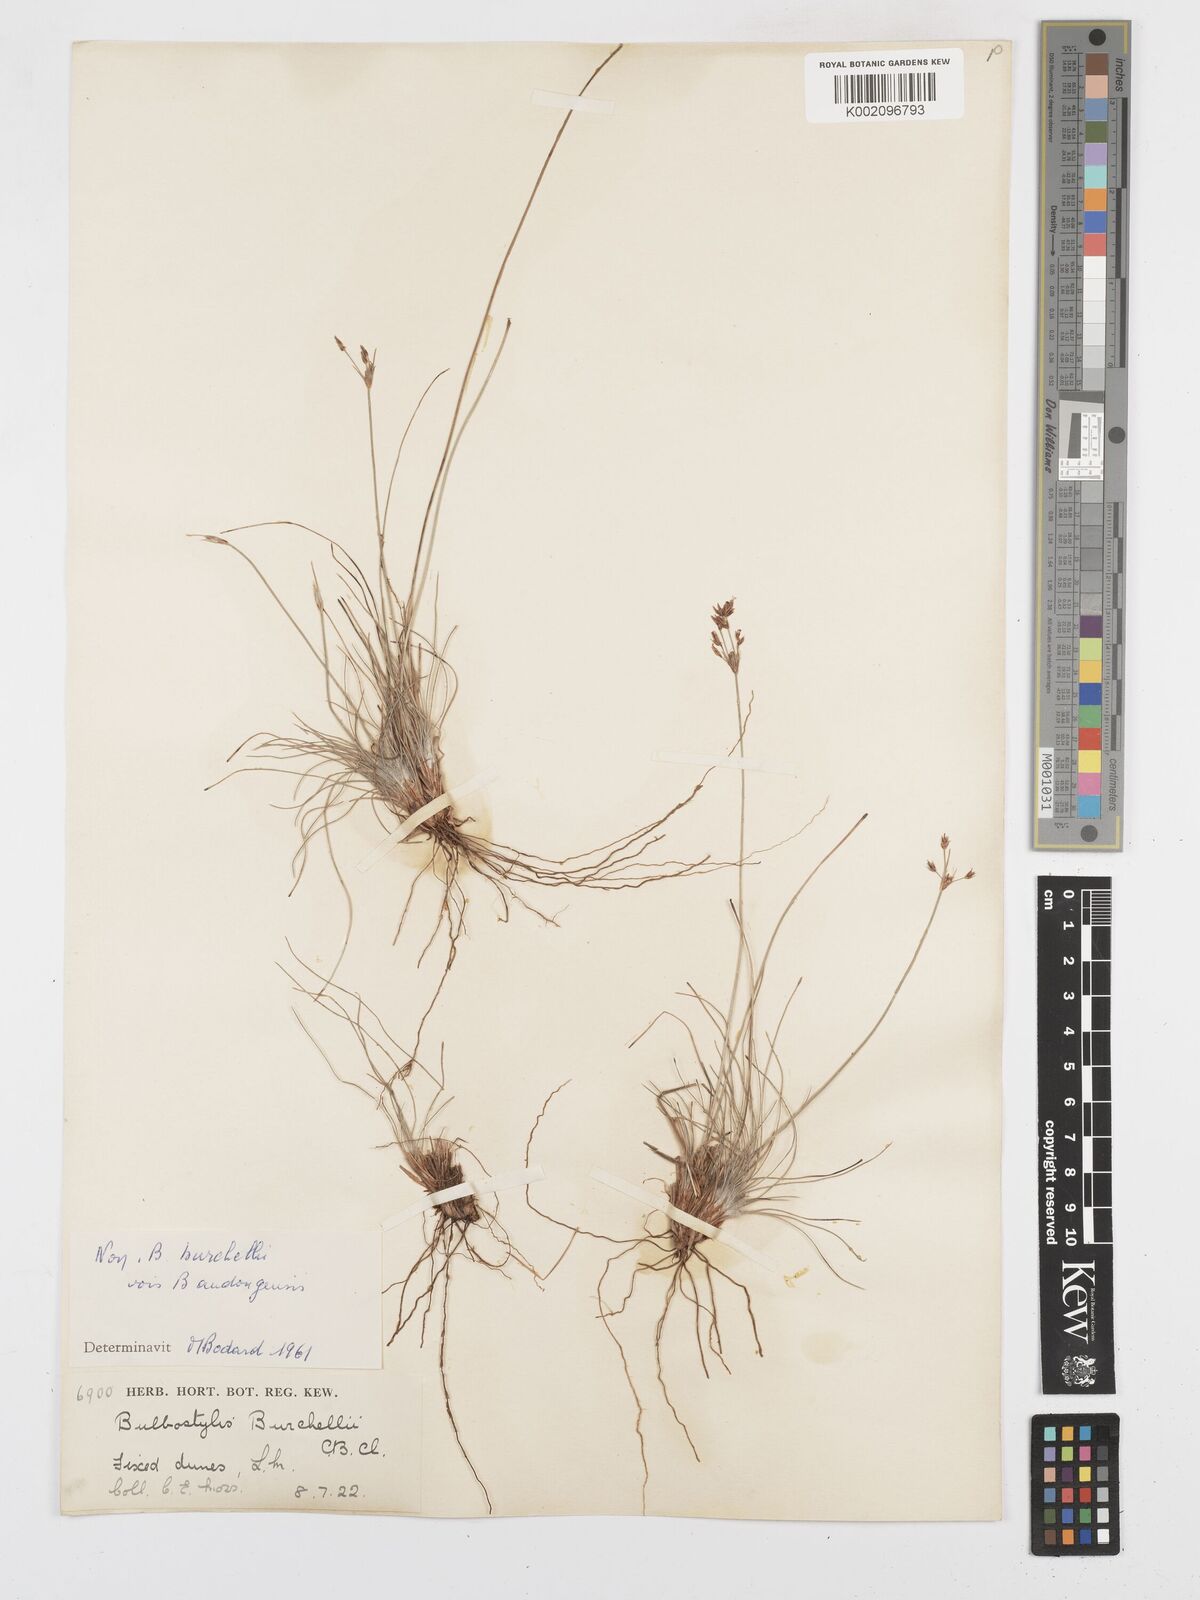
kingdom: Plantae
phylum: Tracheophyta
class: Liliopsida
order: Poales
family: Cyperaceae
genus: Bulbostylis
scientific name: Bulbostylis
